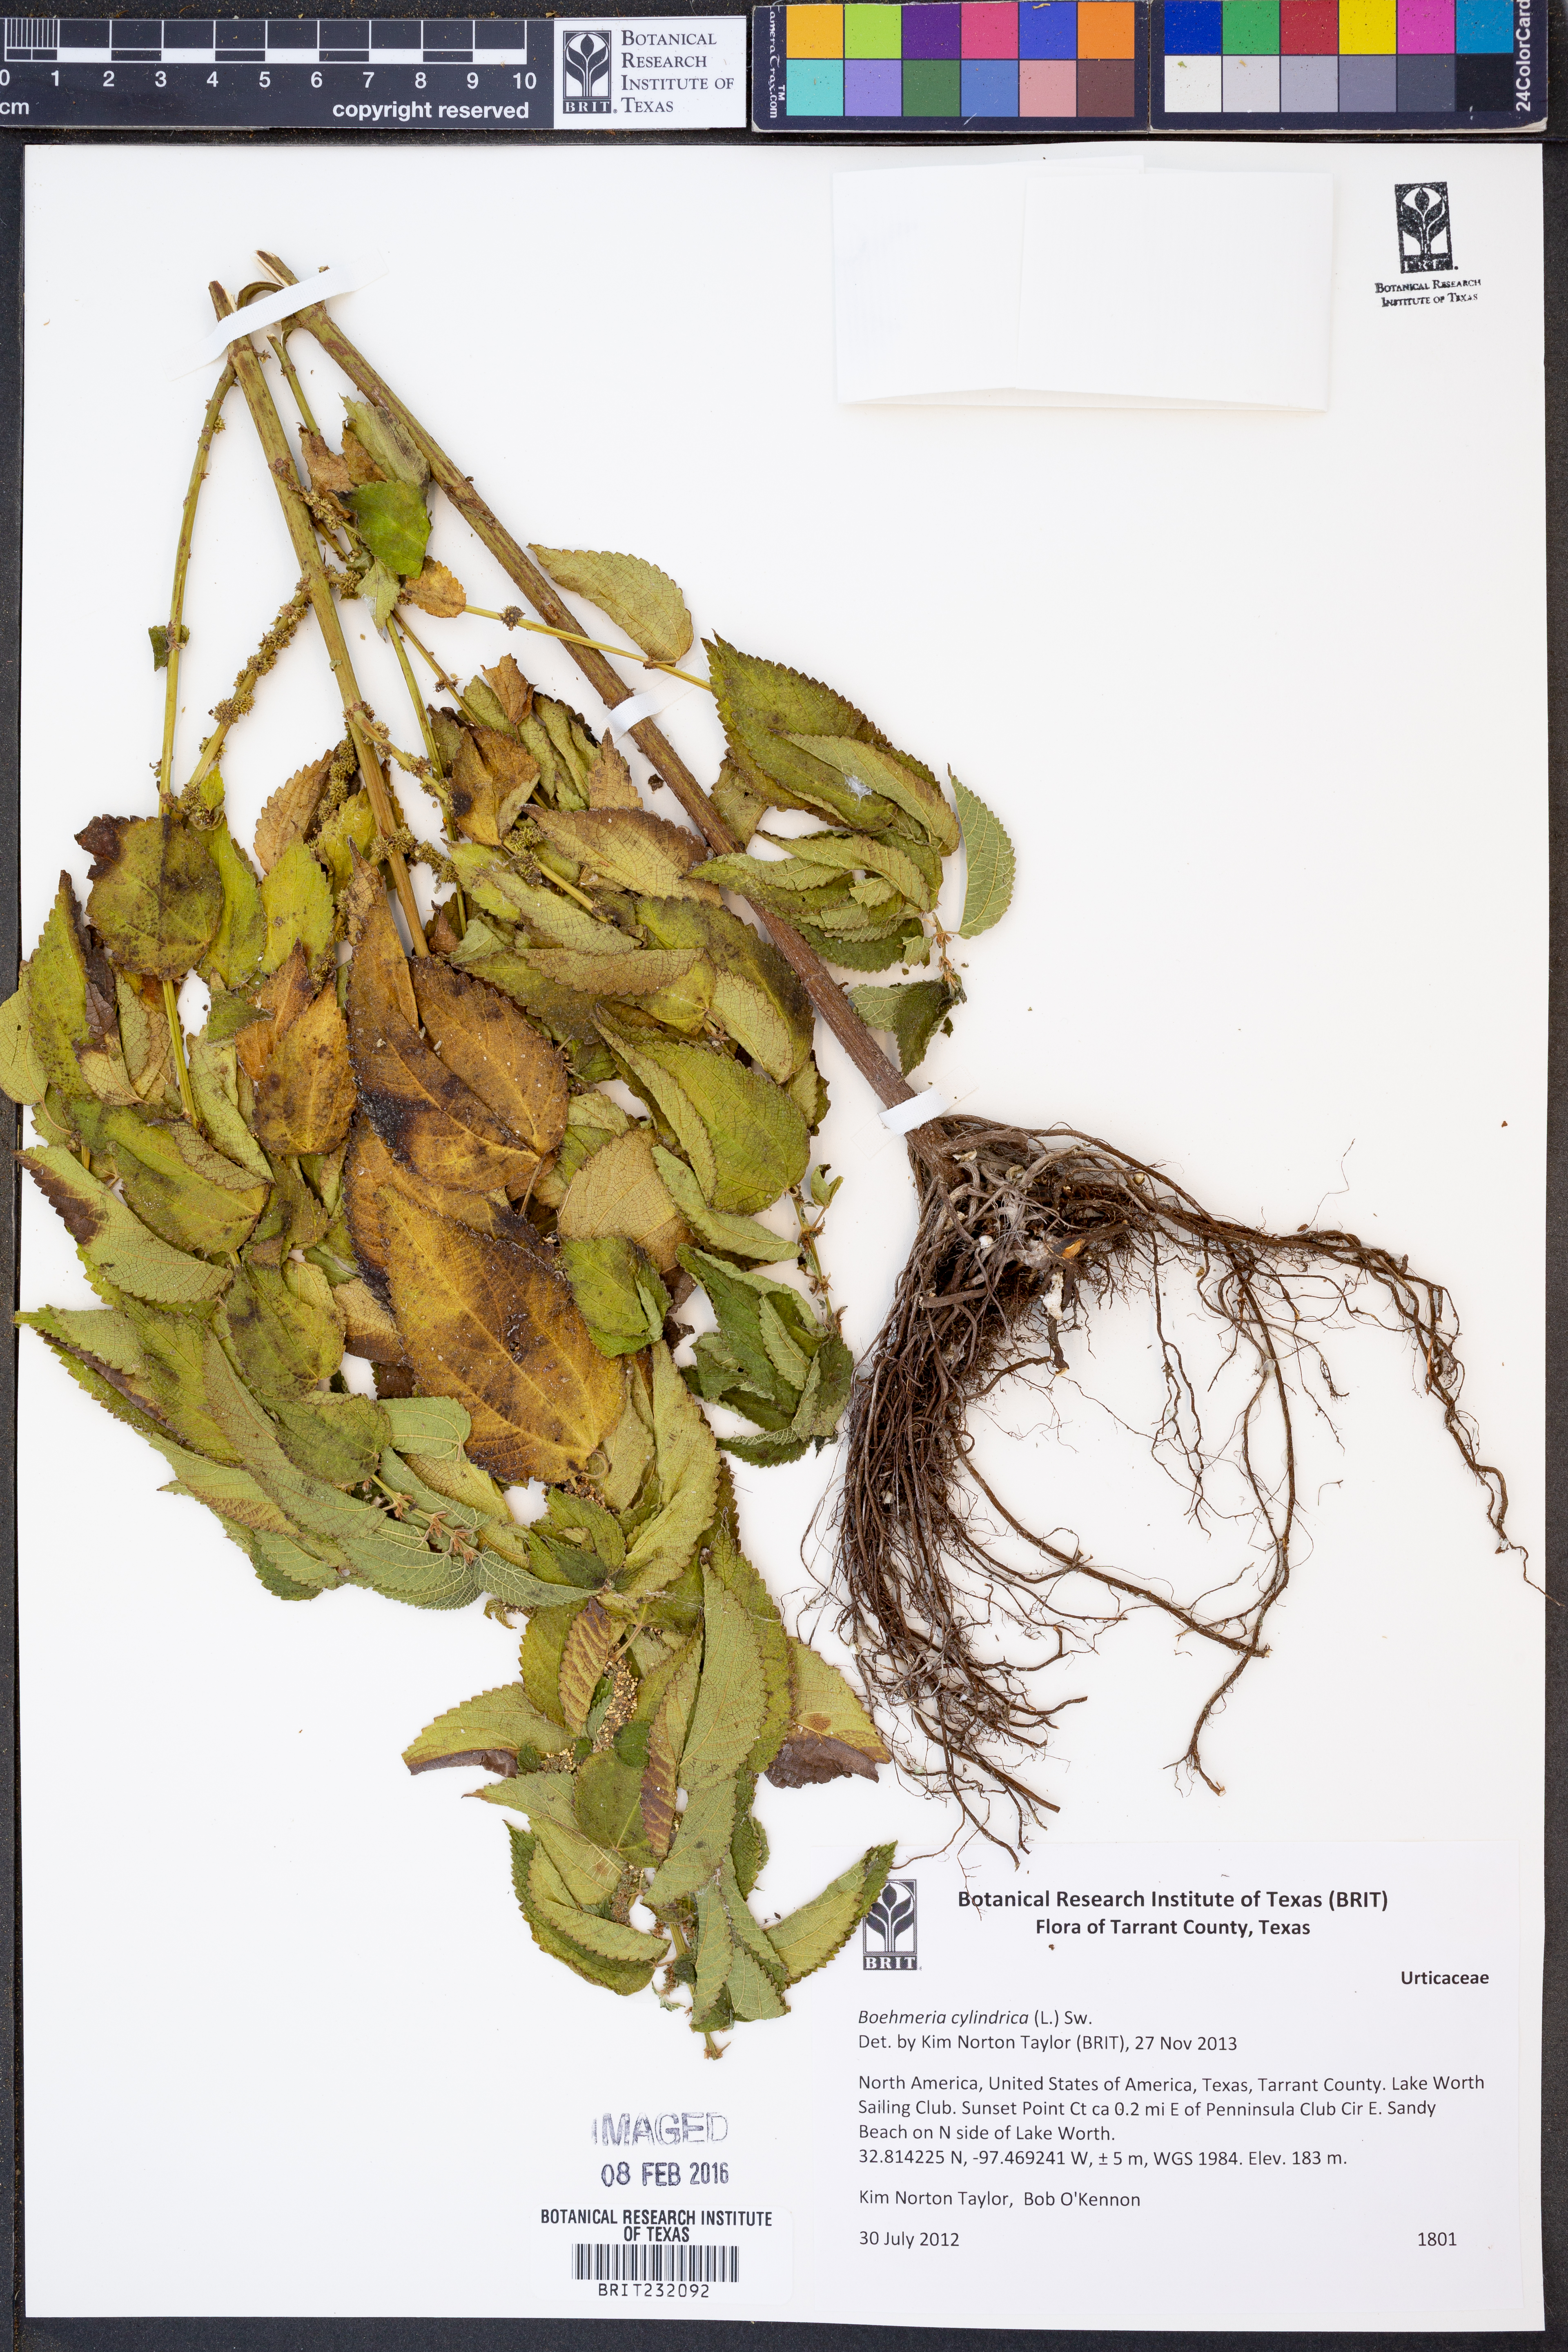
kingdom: Plantae
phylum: Tracheophyta
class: Magnoliopsida
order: Rosales
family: Urticaceae
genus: Boehmeria
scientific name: Boehmeria cylindrica
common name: Bog-hemp
